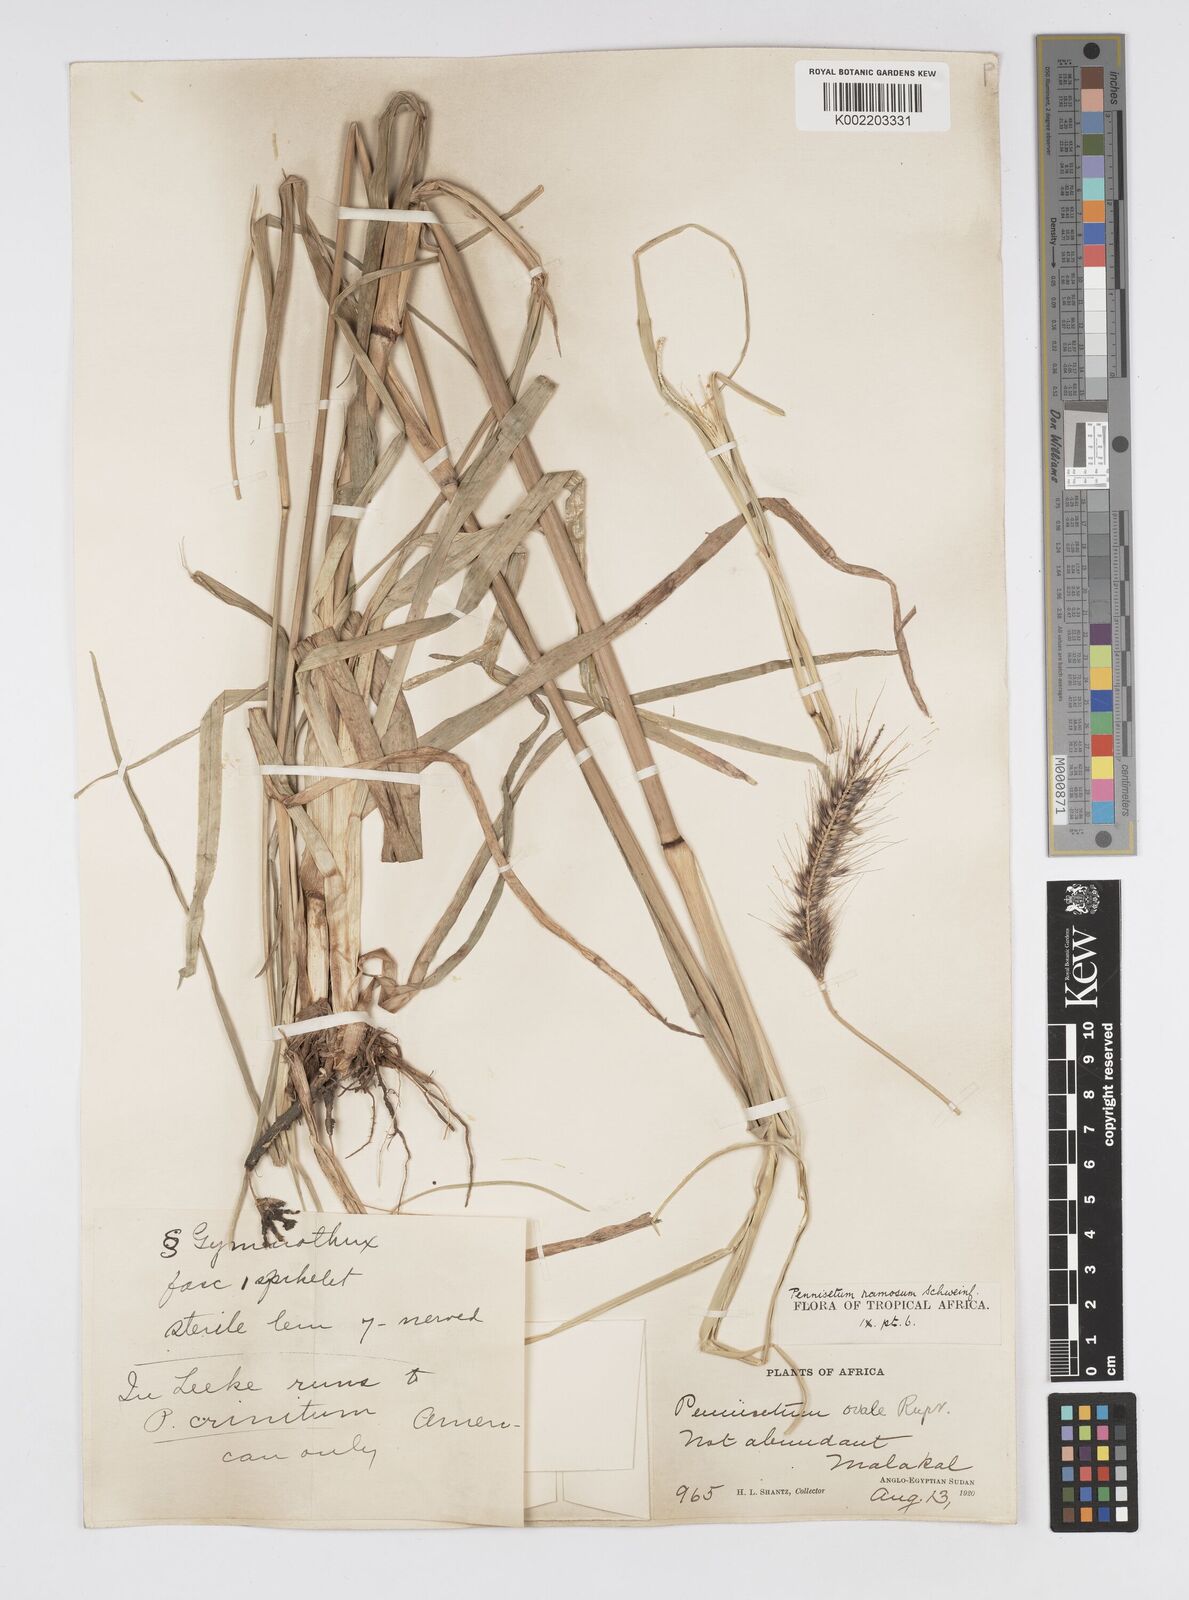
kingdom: Plantae
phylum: Tracheophyta
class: Liliopsida
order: Poales
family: Poaceae
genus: Cenchrus
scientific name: Cenchrus ramosus
